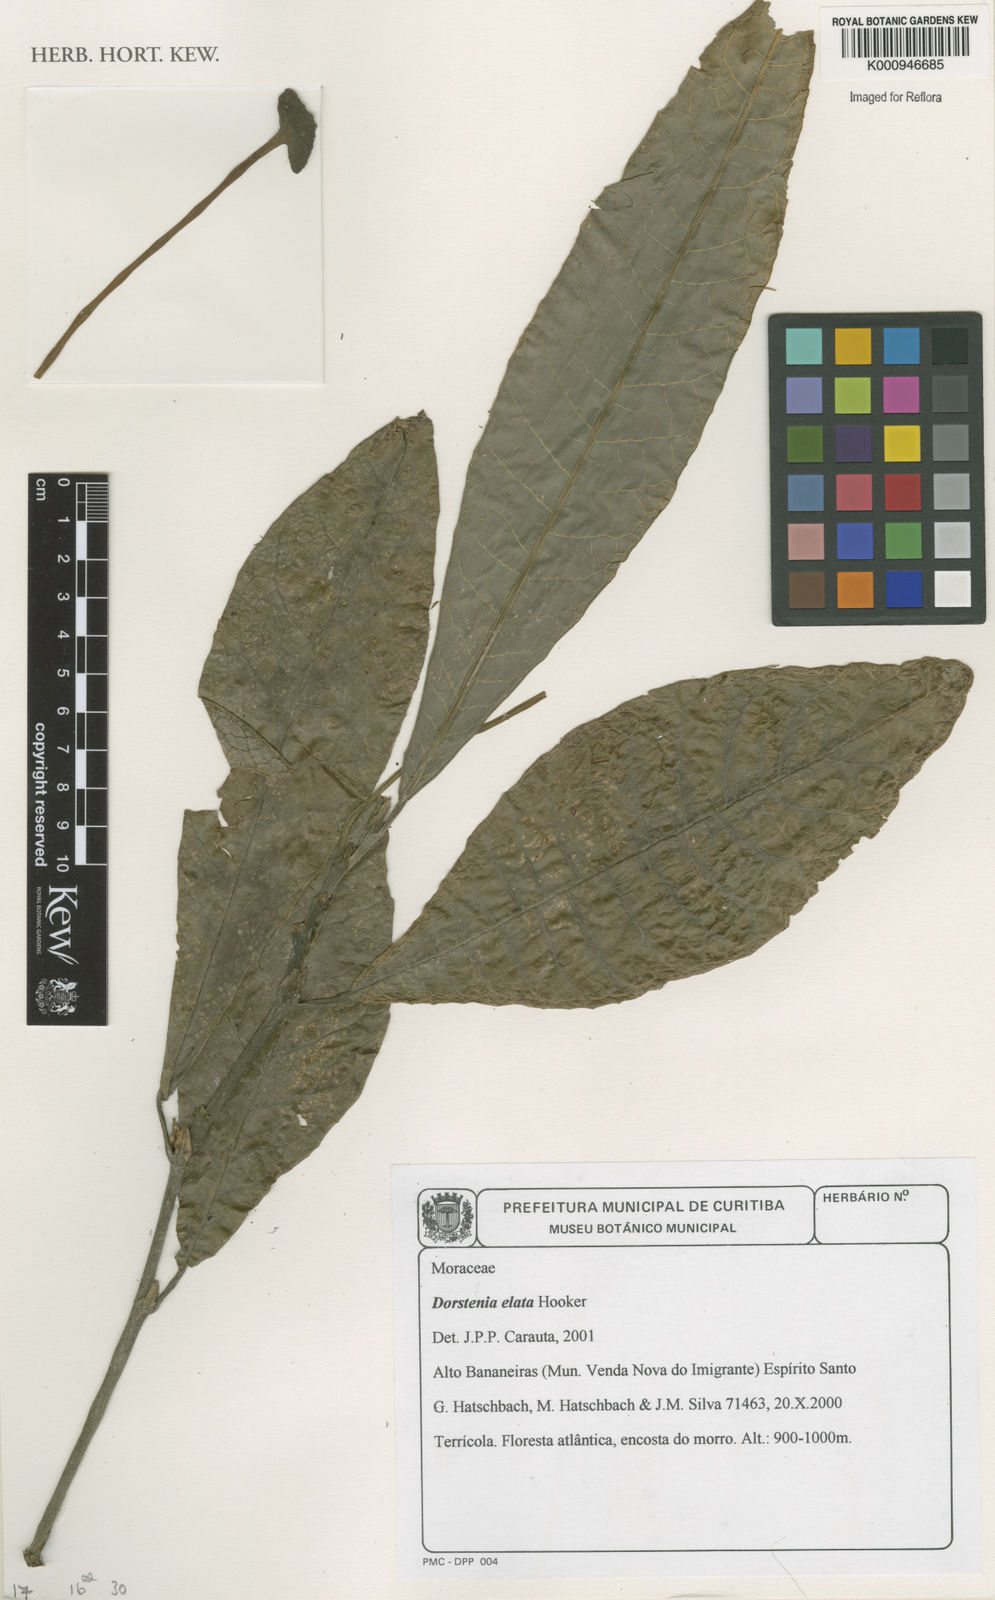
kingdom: Plantae
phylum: Tracheophyta
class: Magnoliopsida
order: Rosales
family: Moraceae
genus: Dorstenia
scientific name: Dorstenia
